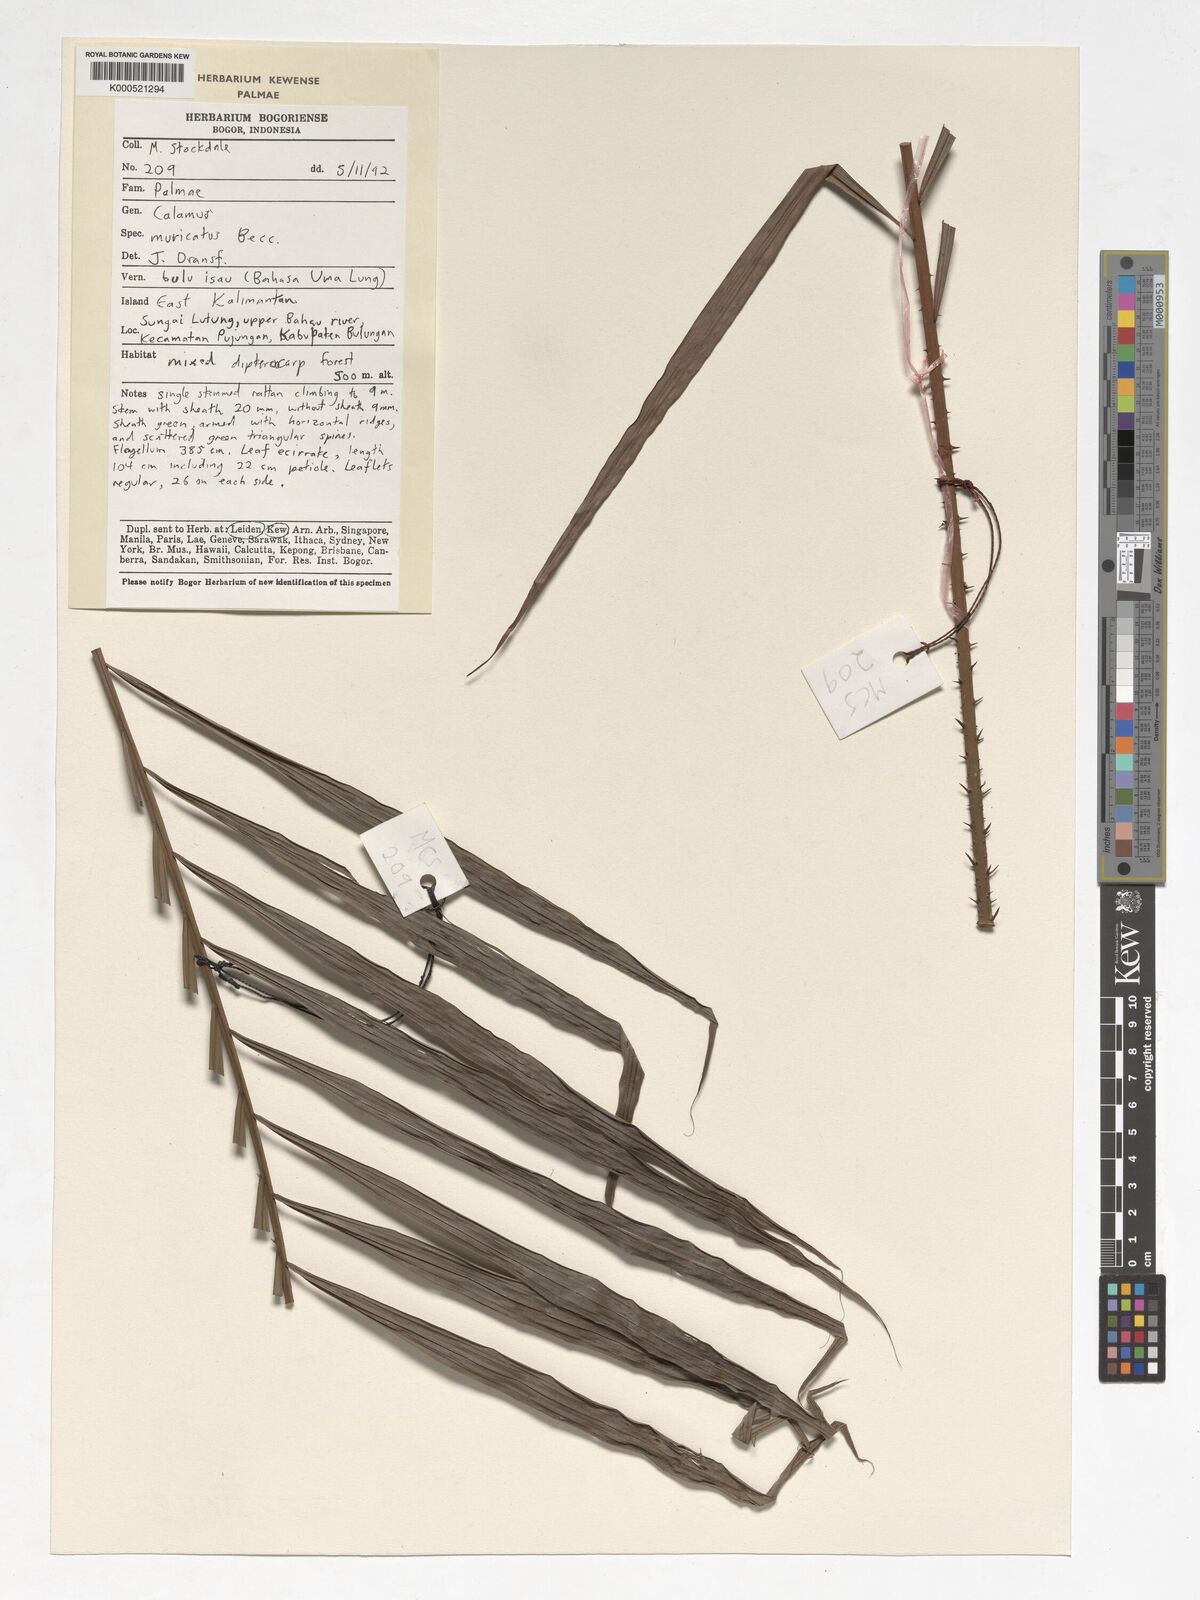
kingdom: Plantae
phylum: Tracheophyta
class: Liliopsida
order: Arecales
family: Arecaceae
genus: Calamus
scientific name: Calamus muricatus
